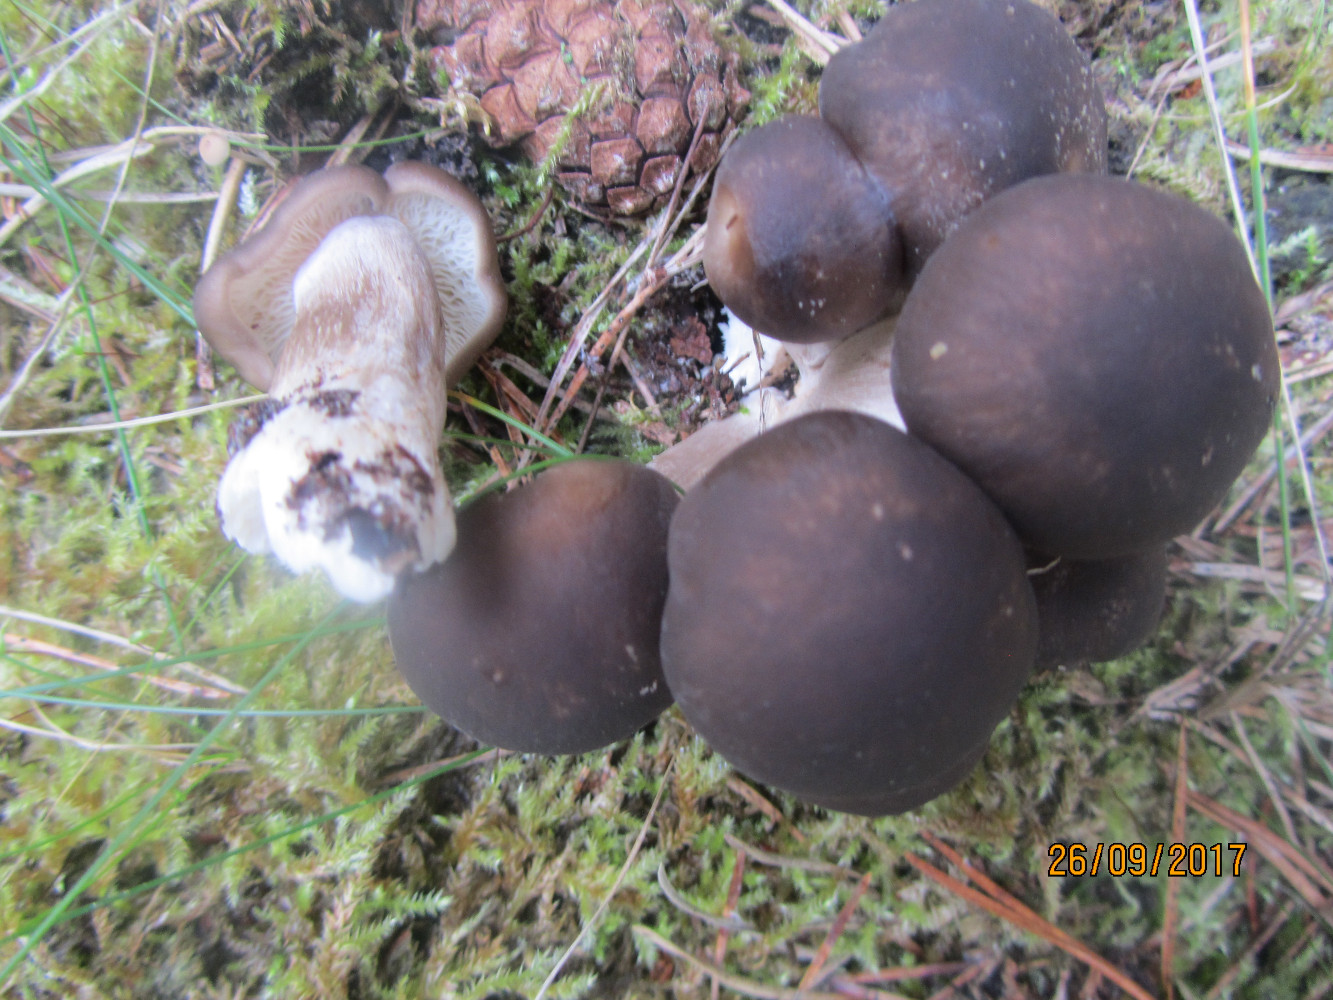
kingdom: Fungi
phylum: Basidiomycota
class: Agaricomycetes
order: Agaricales
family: Lyophyllaceae
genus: Lyophyllum
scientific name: Lyophyllum decastes
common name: røggrå gråblad
